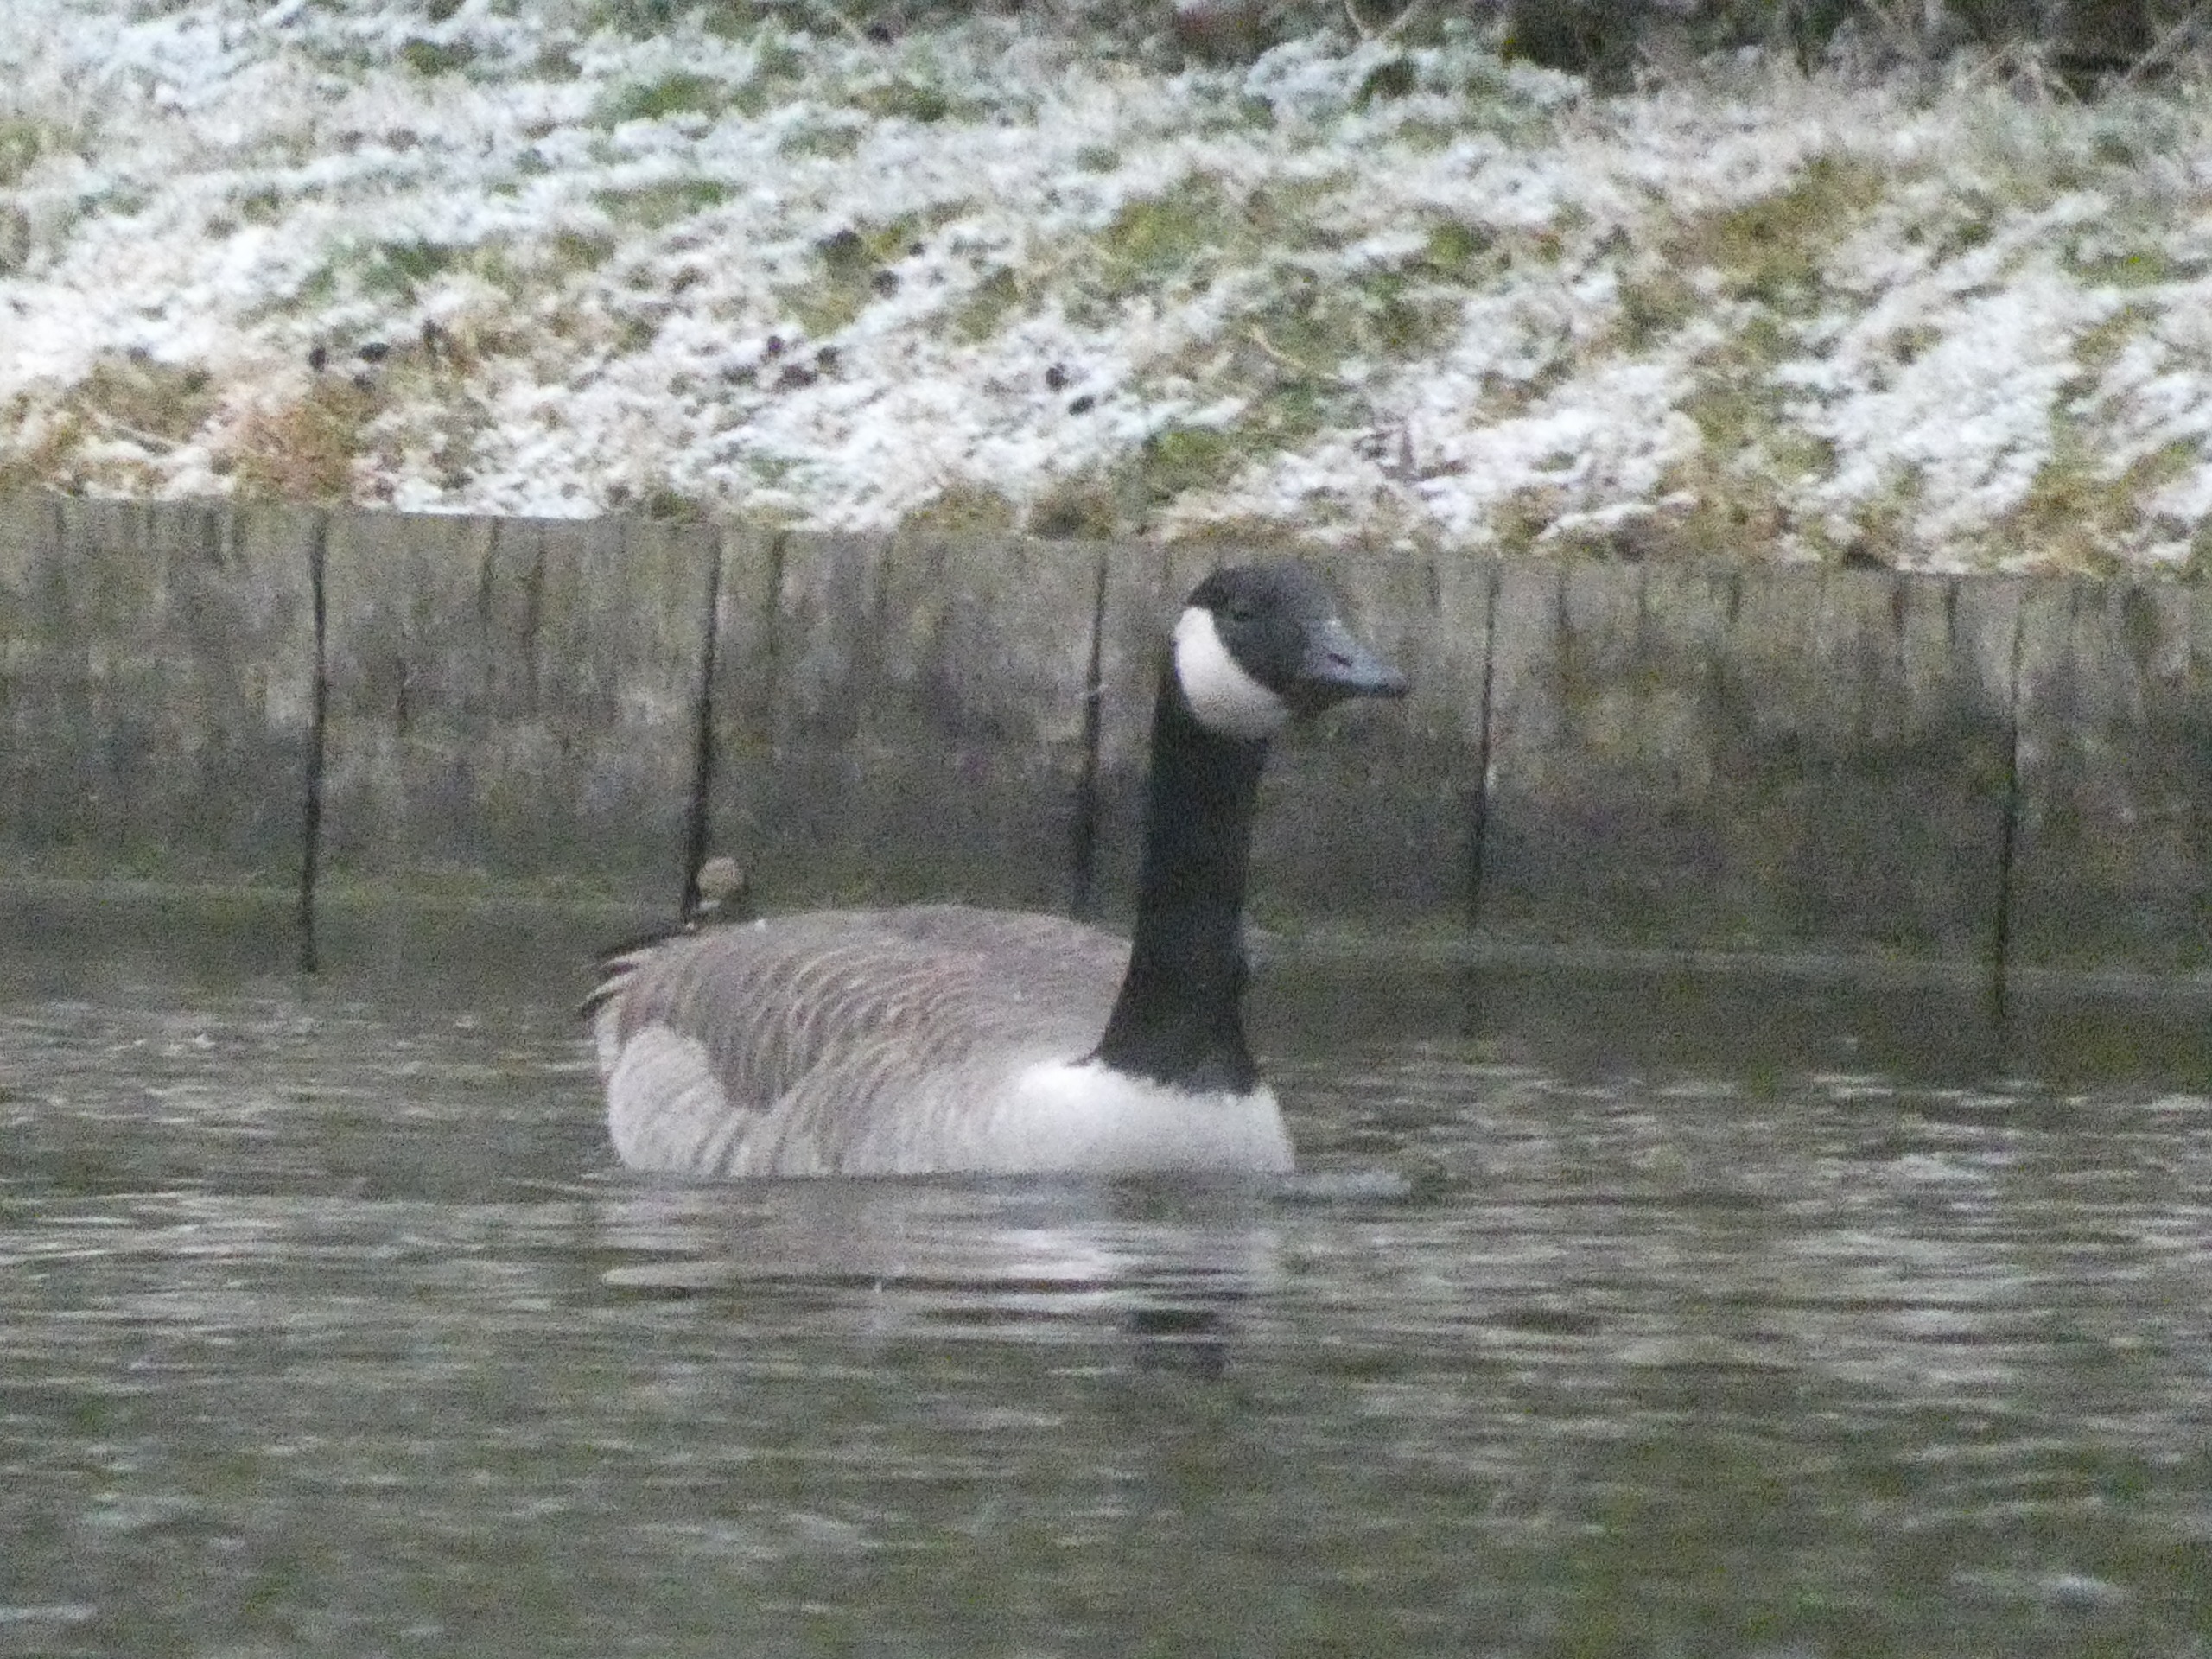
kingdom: Animalia
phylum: Chordata
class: Aves
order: Anseriformes
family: Anatidae
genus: Branta
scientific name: Branta canadensis
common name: Canadagås
